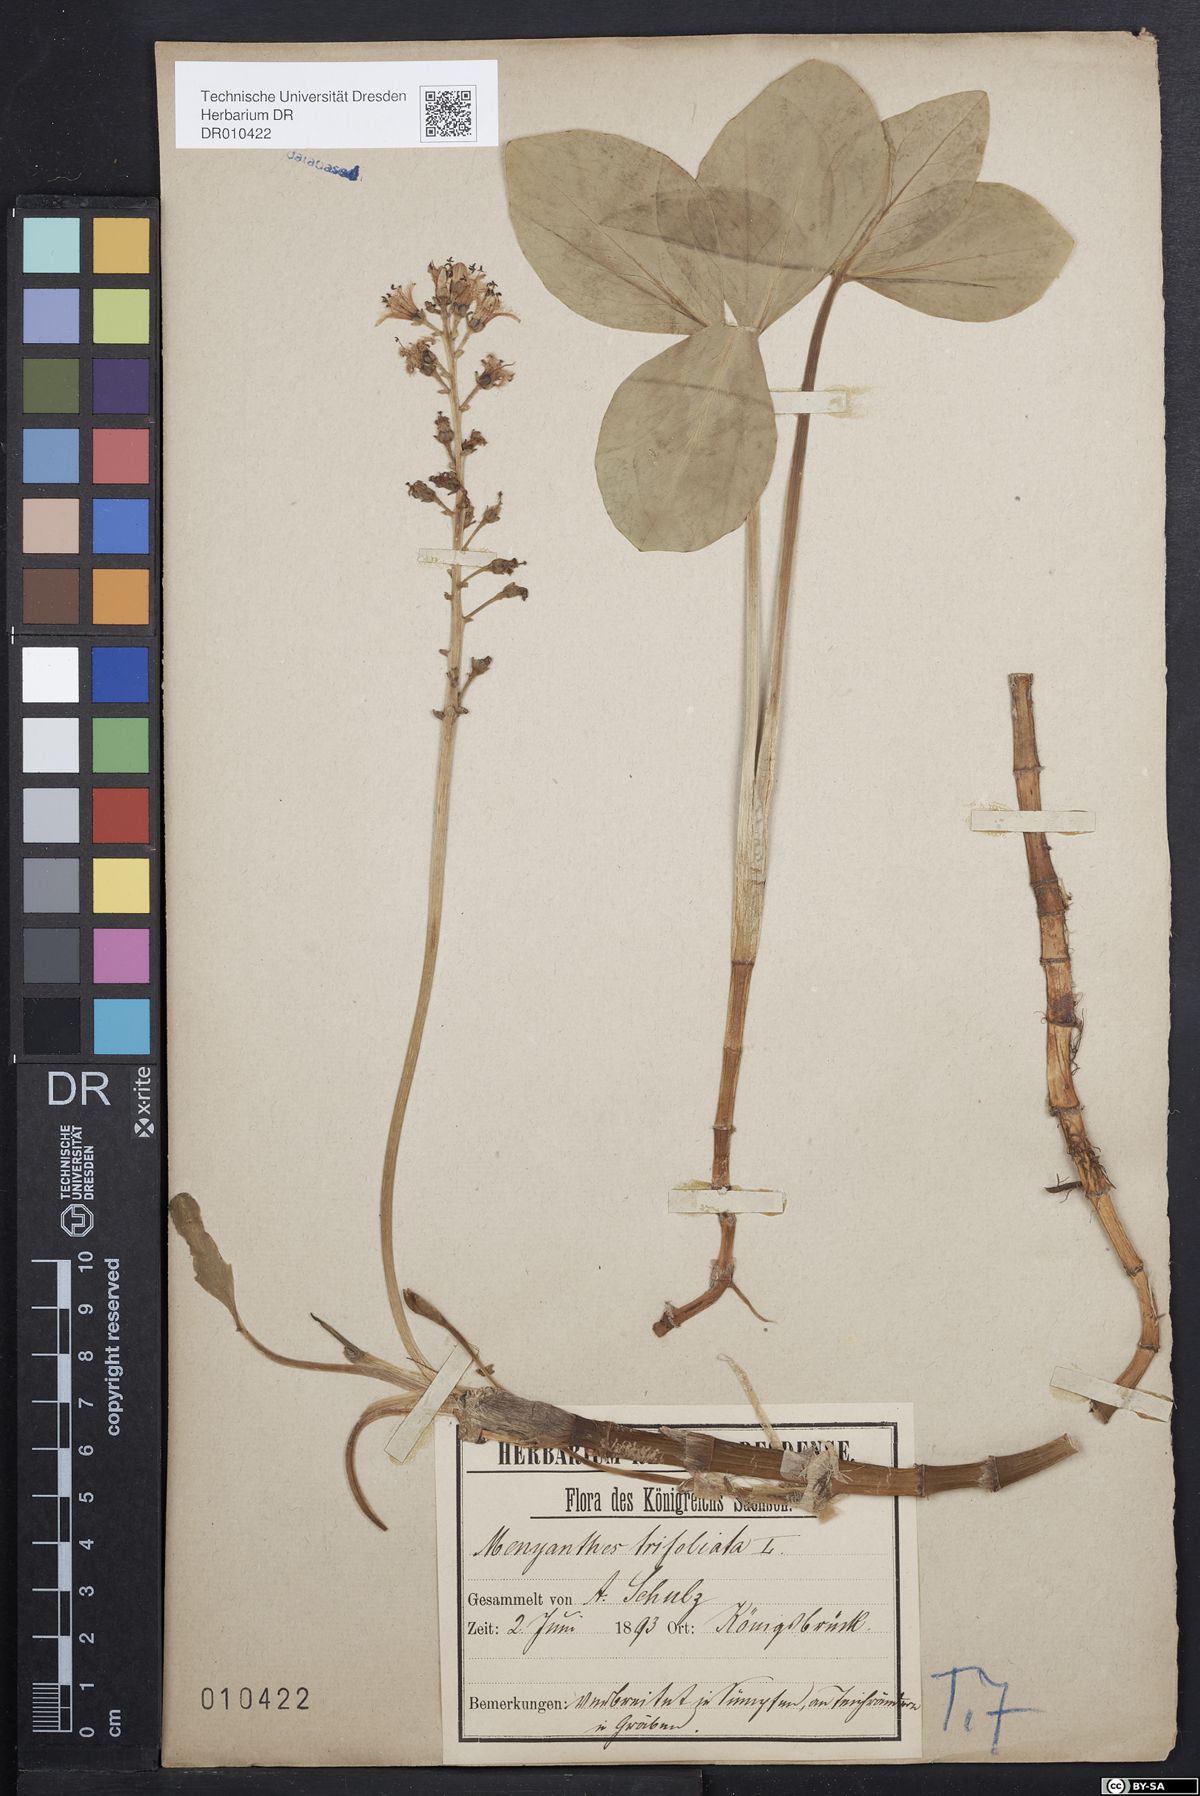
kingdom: Plantae
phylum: Tracheophyta
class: Magnoliopsida
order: Asterales
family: Menyanthaceae
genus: Menyanthes
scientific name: Menyanthes trifoliata
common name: Bogbean
